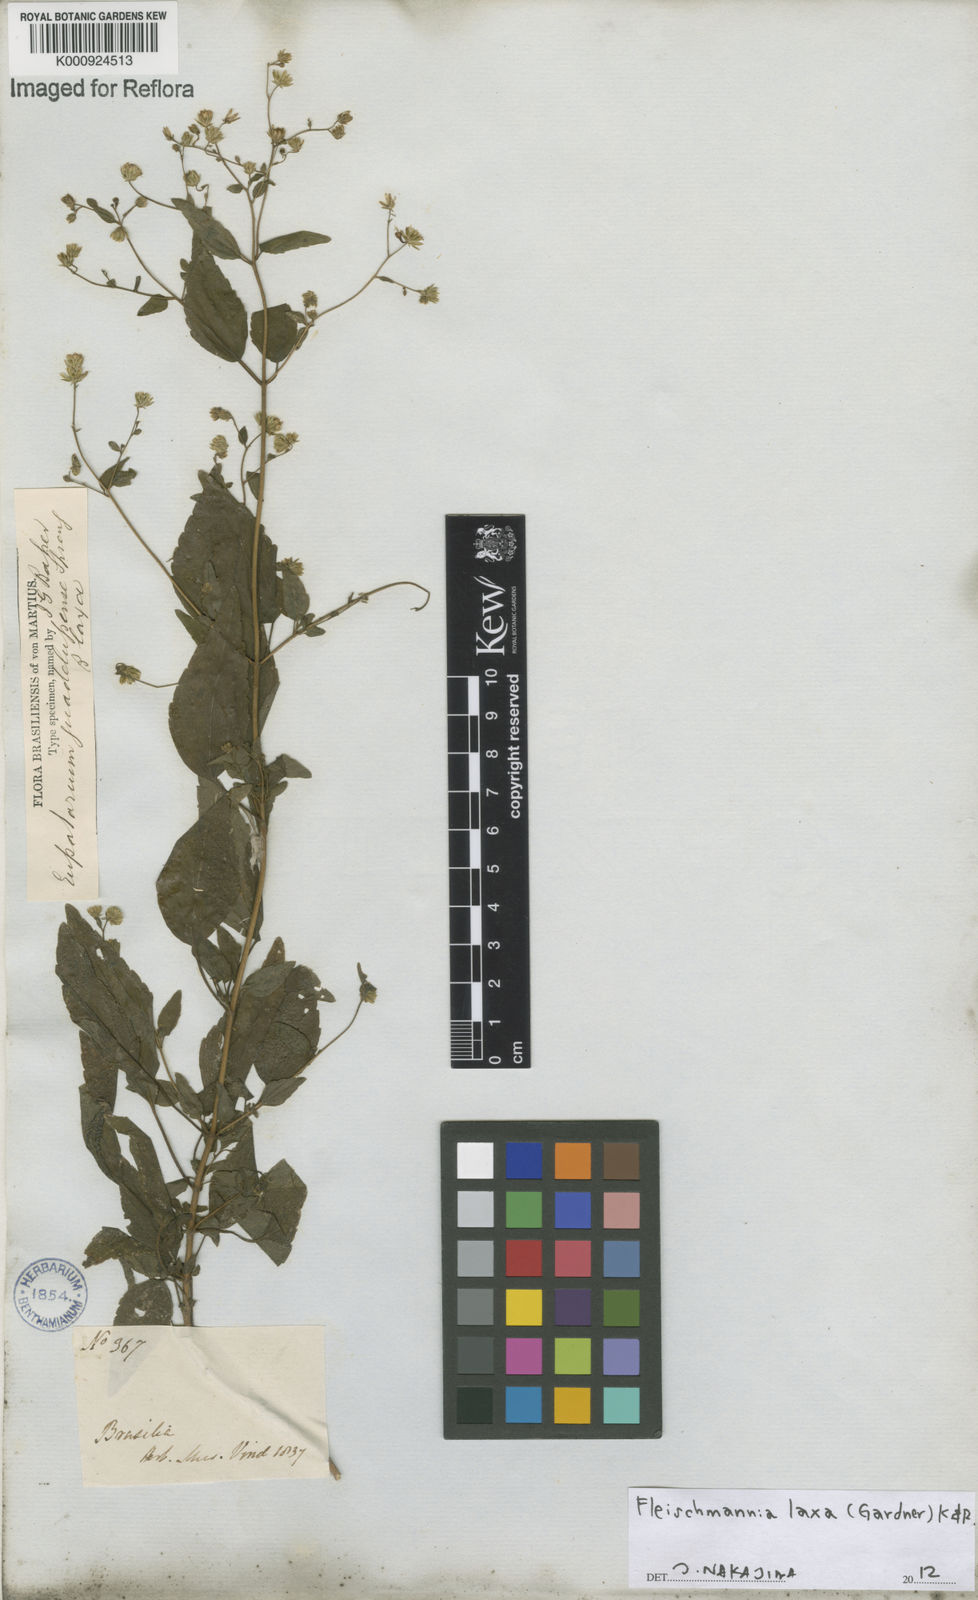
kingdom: Plantae
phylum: Tracheophyta
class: Magnoliopsida
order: Asterales
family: Asteraceae
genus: Fleischmannia
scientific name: Fleischmannia laxa
